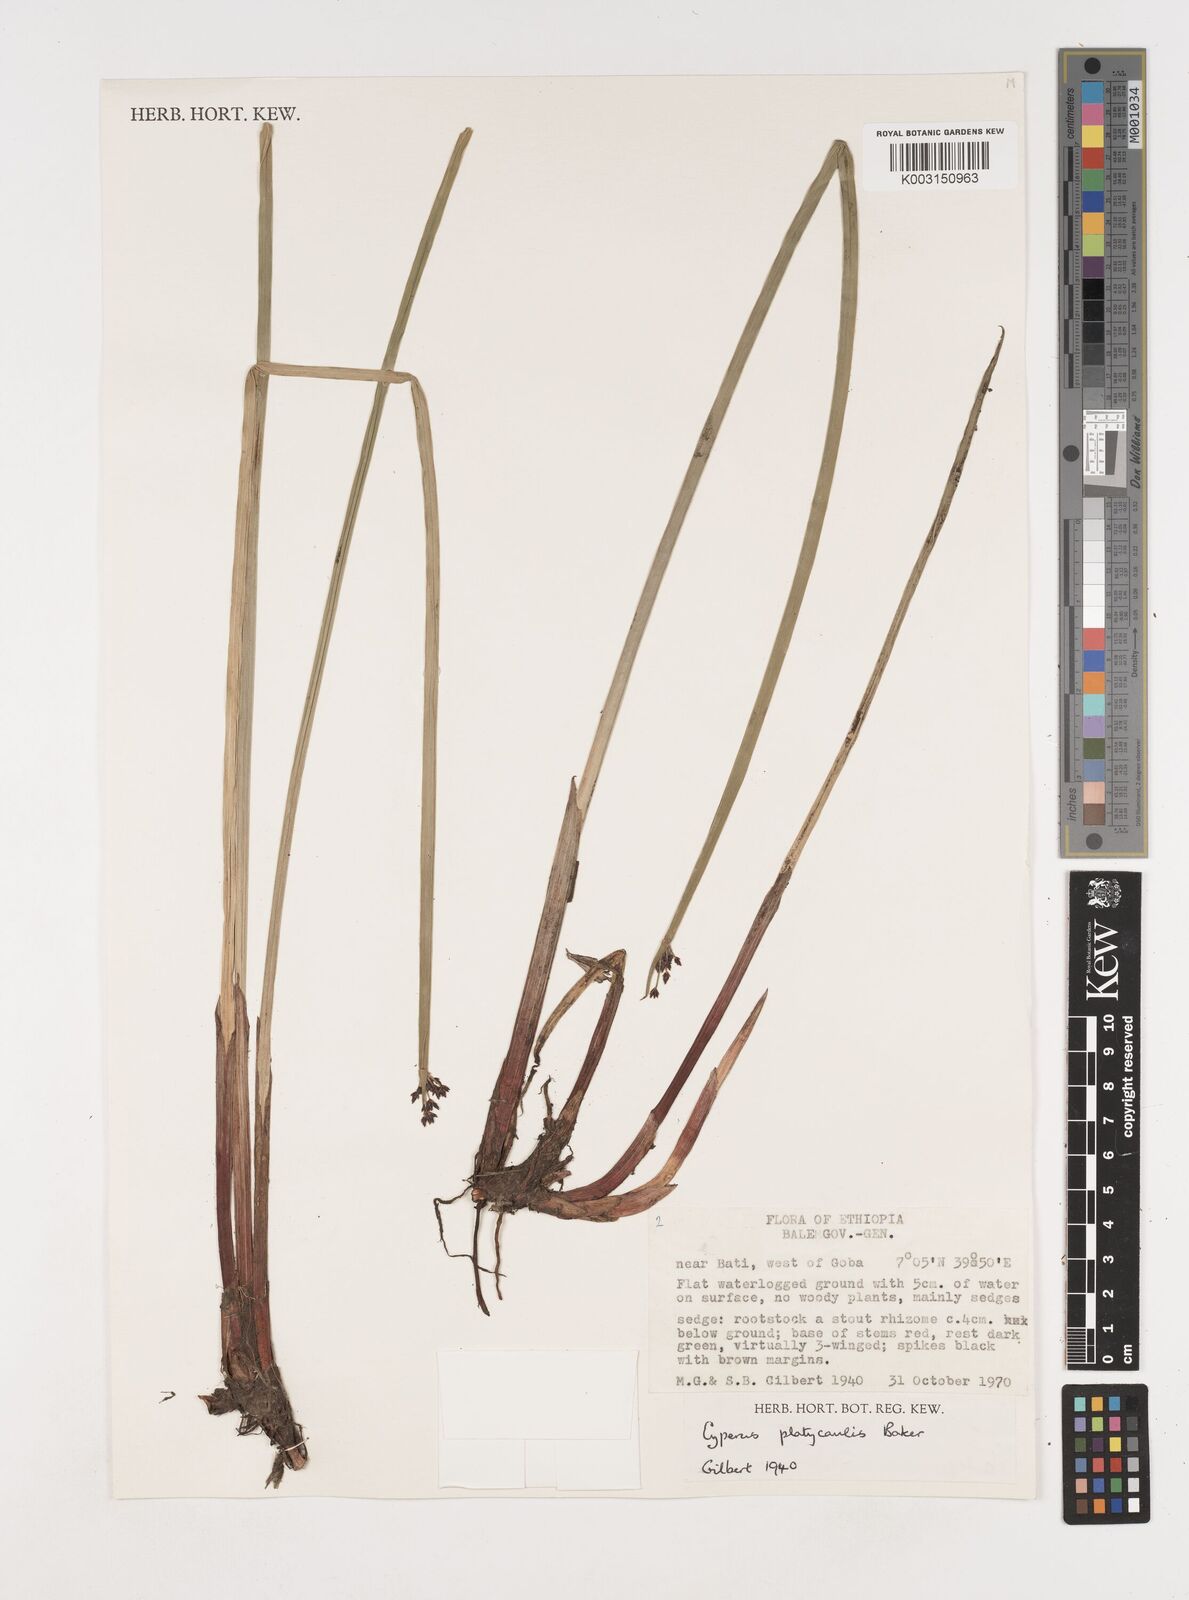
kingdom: Plantae
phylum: Tracheophyta
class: Liliopsida
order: Poales
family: Cyperaceae
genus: Cyperus
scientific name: Cyperus platycaulis
